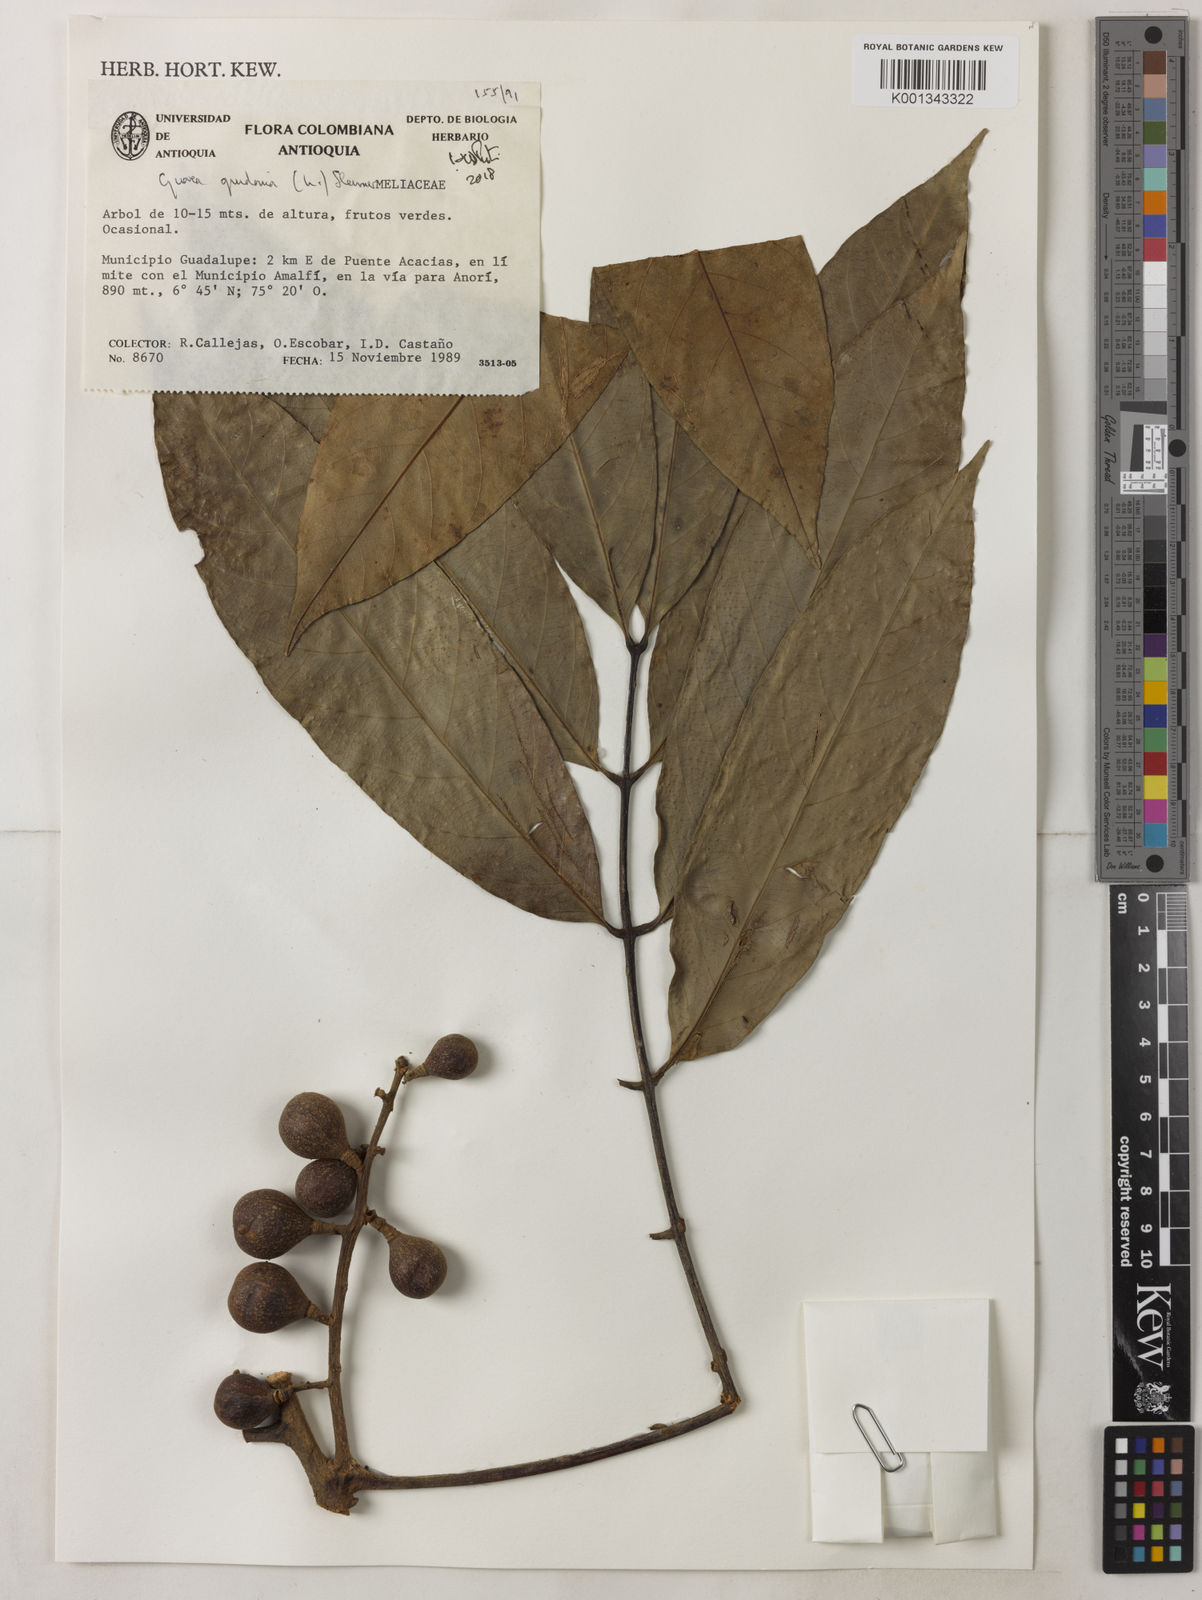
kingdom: Plantae
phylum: Tracheophyta
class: Magnoliopsida
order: Sapindales
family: Meliaceae
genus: Guarea
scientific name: Guarea guidonia
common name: American muskwood
